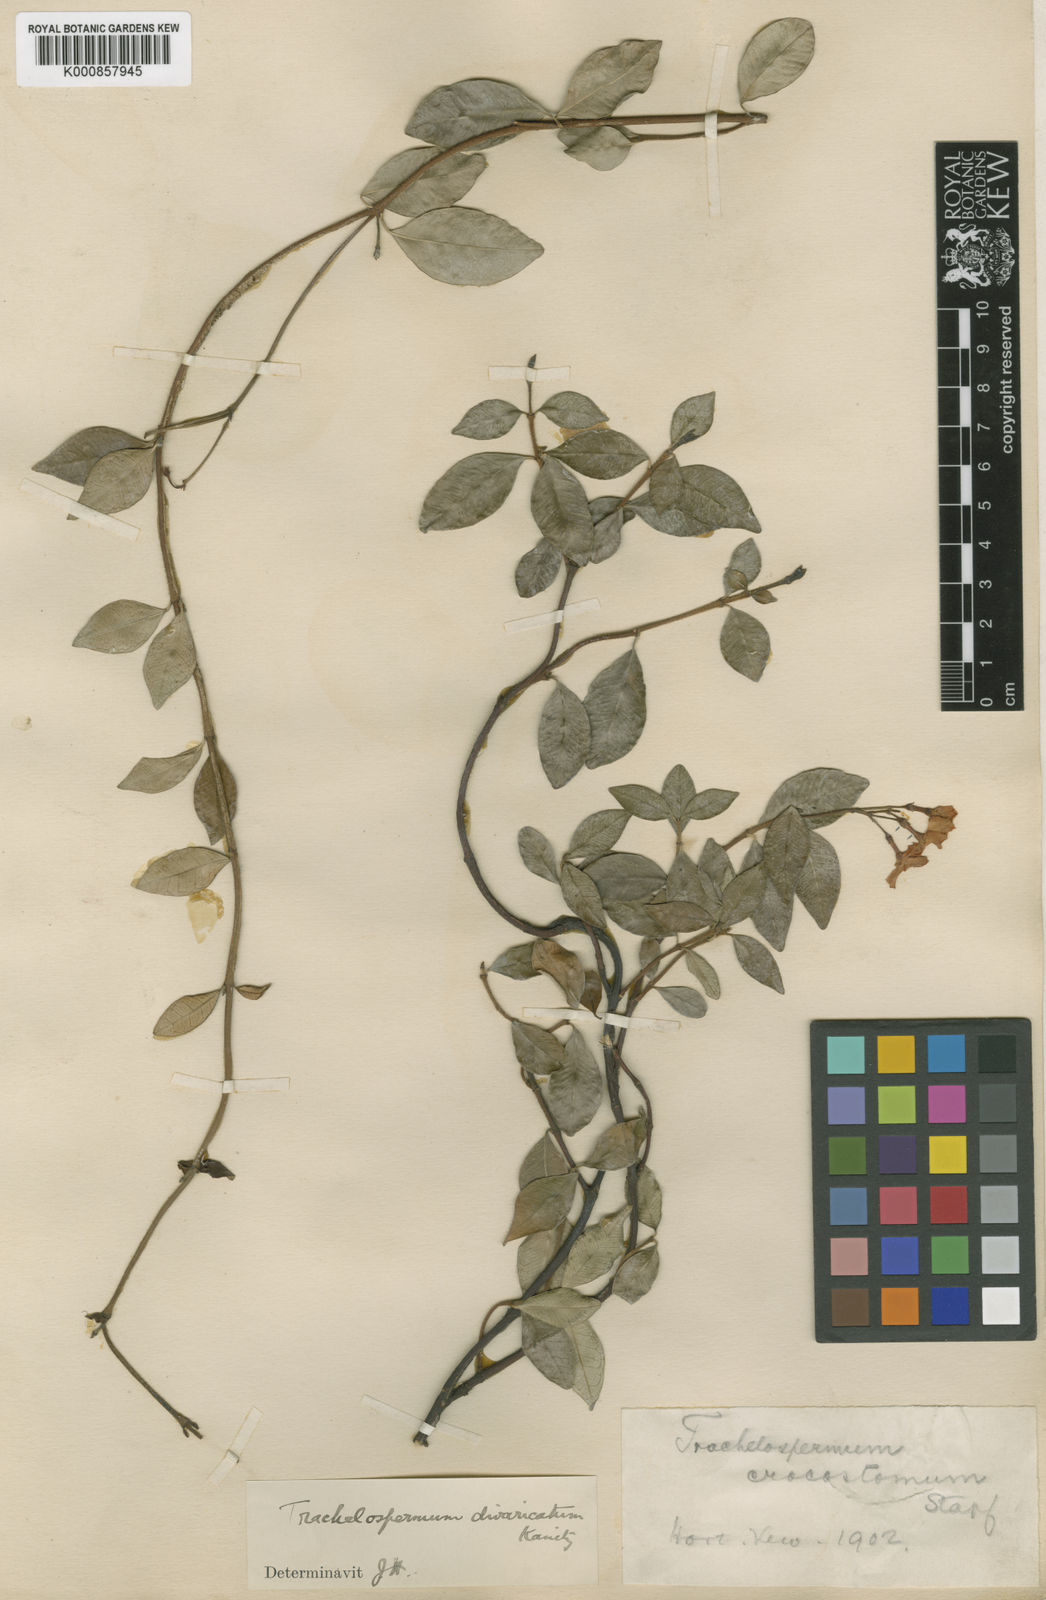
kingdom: Plantae
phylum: Tracheophyta
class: Magnoliopsida
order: Gentianales
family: Apocynaceae
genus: Trachelospermum
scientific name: Trachelospermum asiaticum
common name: Asiatic jasmine
